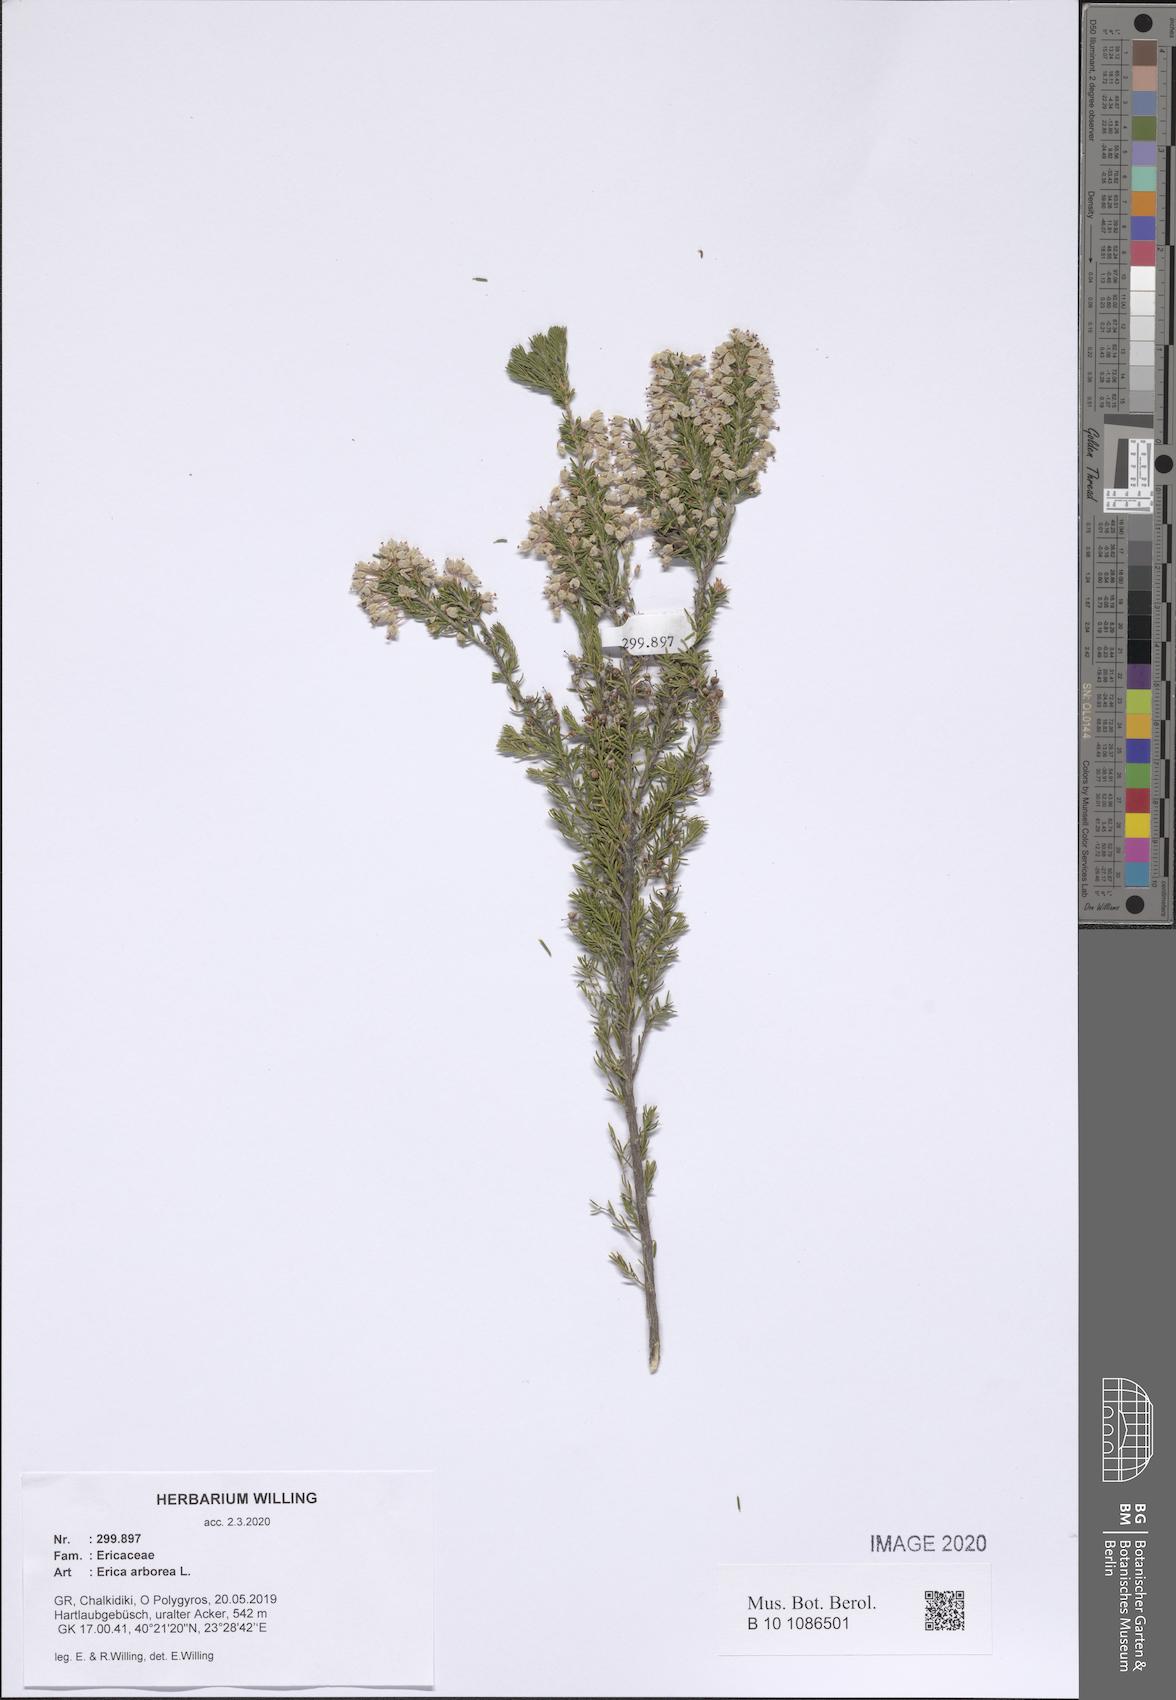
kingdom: Plantae
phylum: Tracheophyta
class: Magnoliopsida
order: Ericales
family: Ericaceae
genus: Erica
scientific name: Erica arborea
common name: Tree heath
